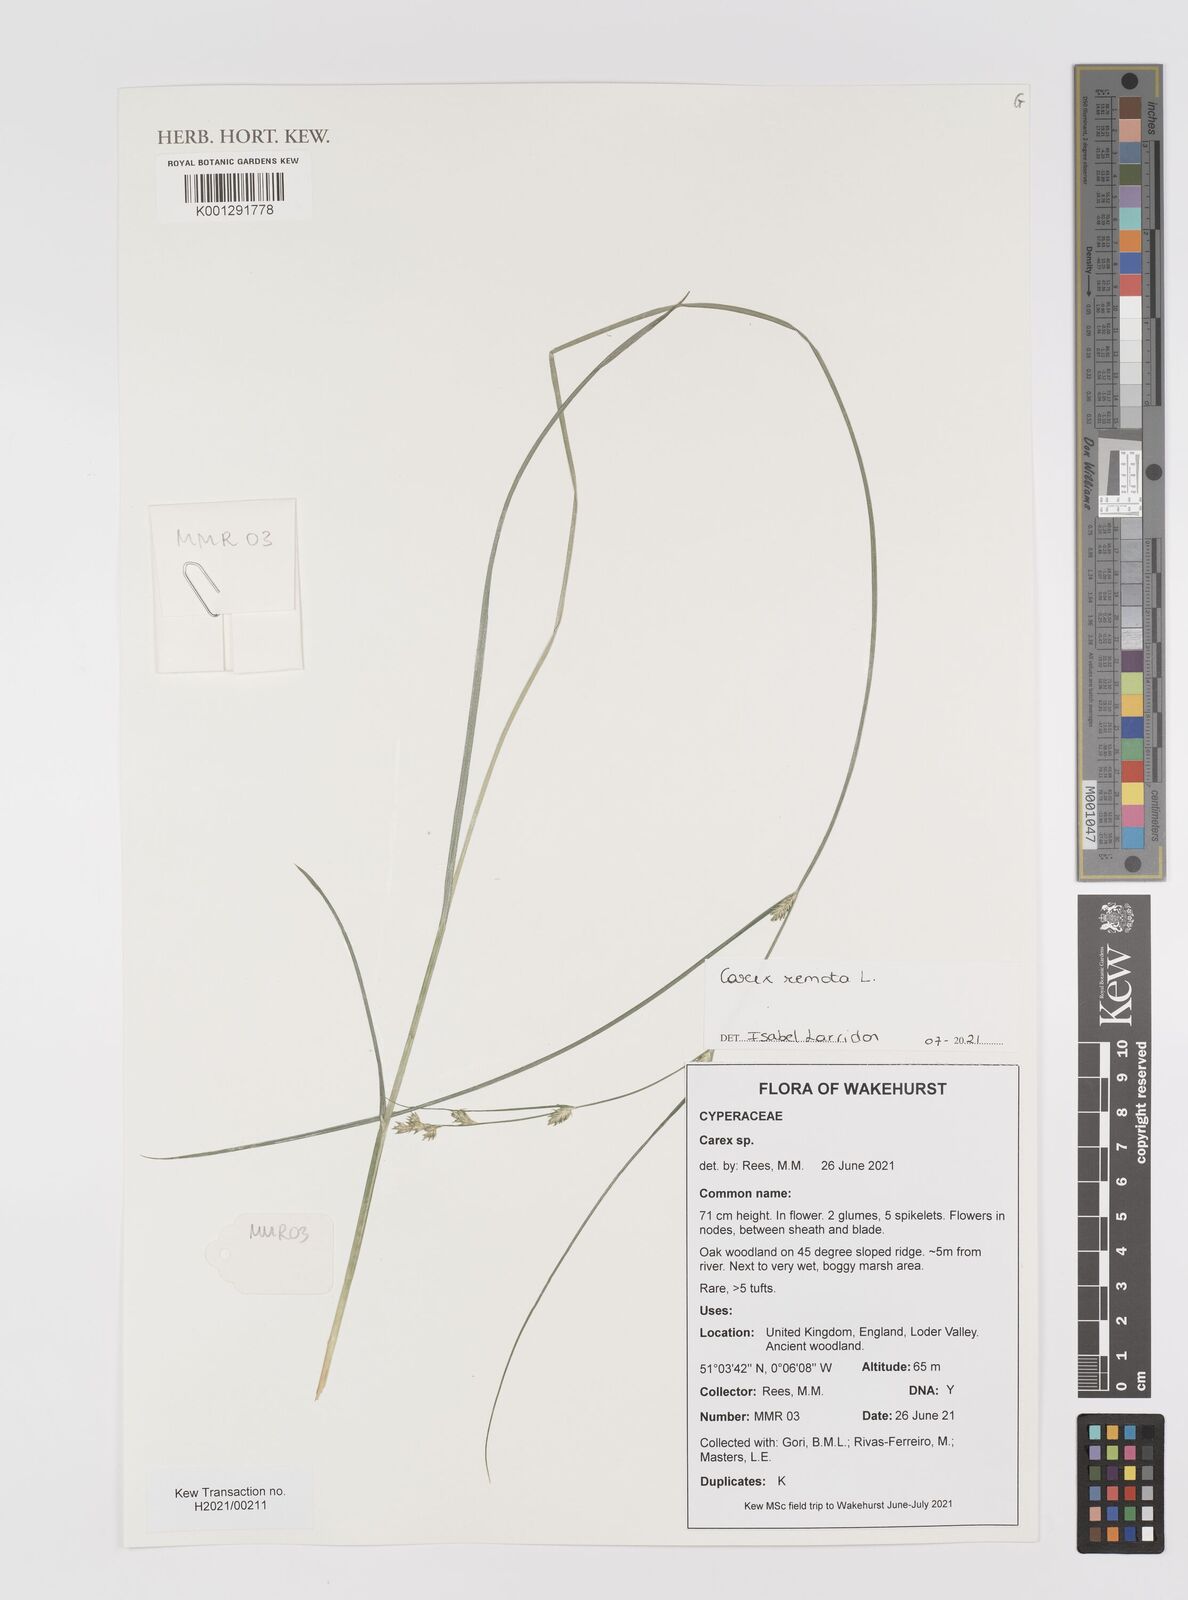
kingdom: Plantae
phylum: Tracheophyta
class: Liliopsida
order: Poales
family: Cyperaceae
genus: Carex
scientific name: Carex remota
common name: Remote sedge
